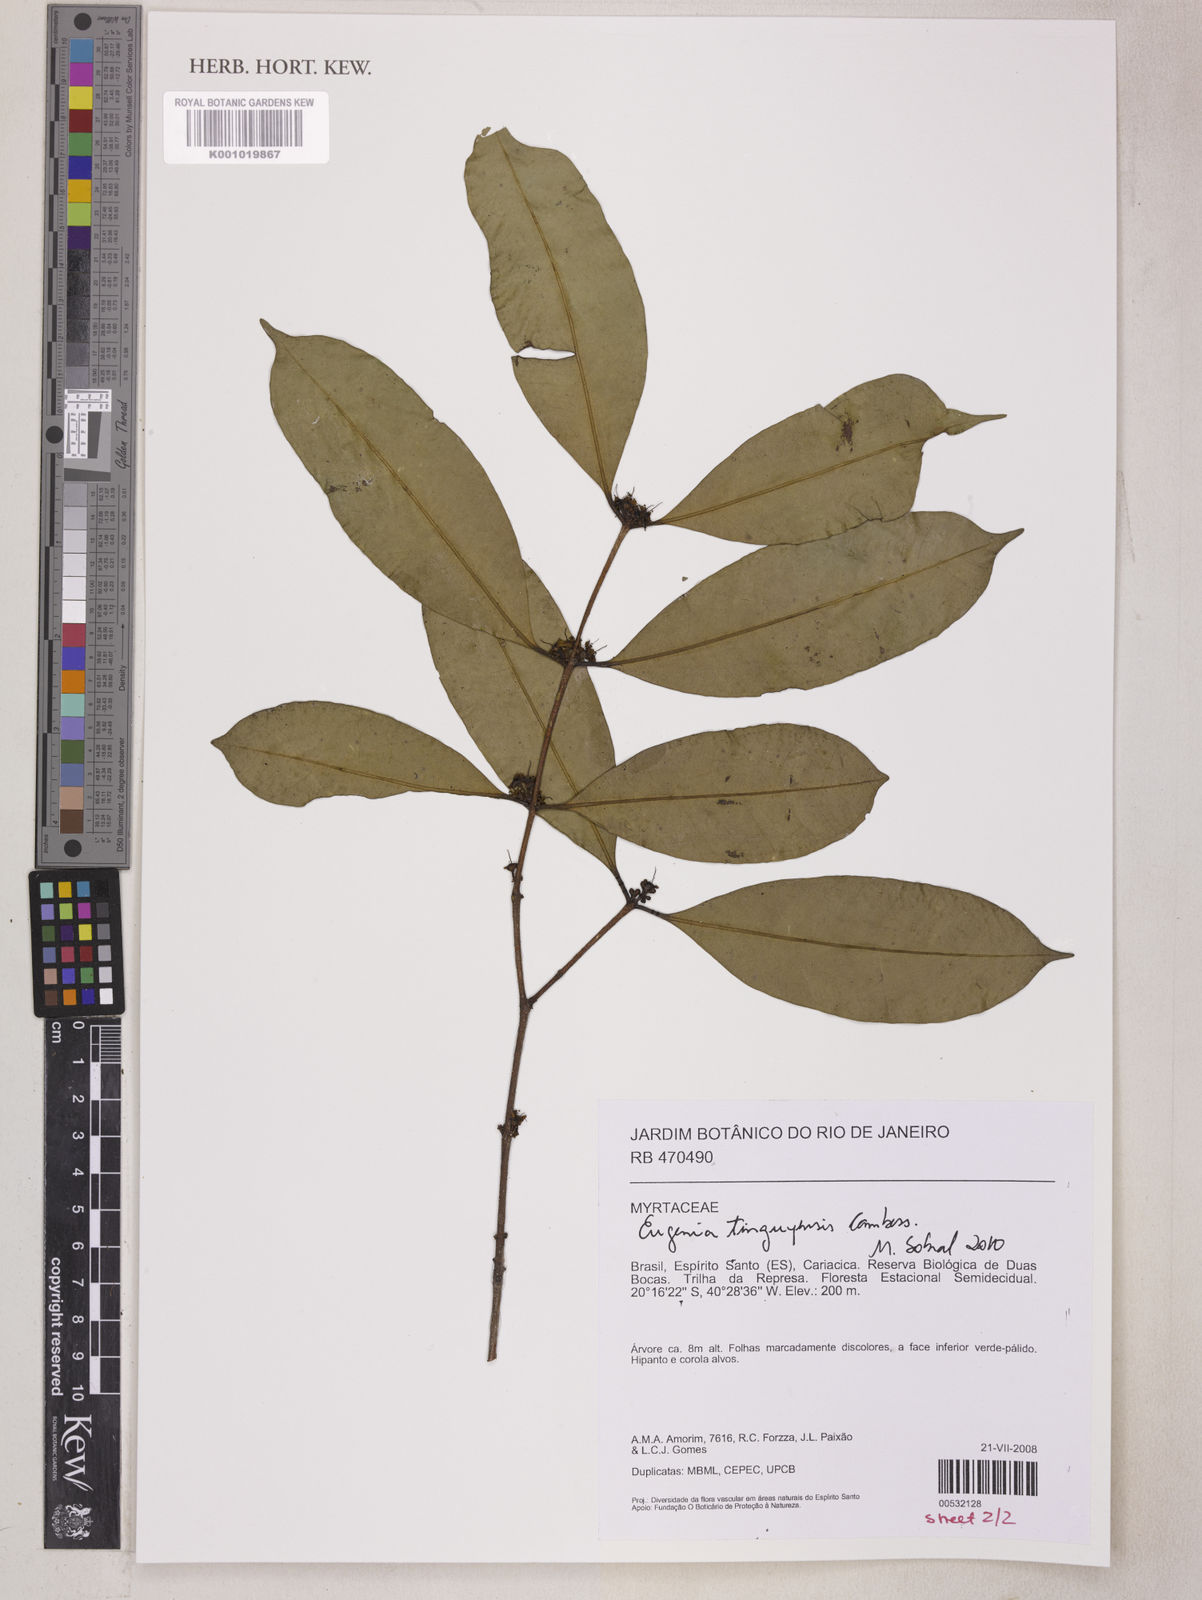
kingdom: Plantae
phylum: Tracheophyta
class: Magnoliopsida
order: Myrtales
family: Myrtaceae
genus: Eugenia
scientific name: Eugenia pisiformis
